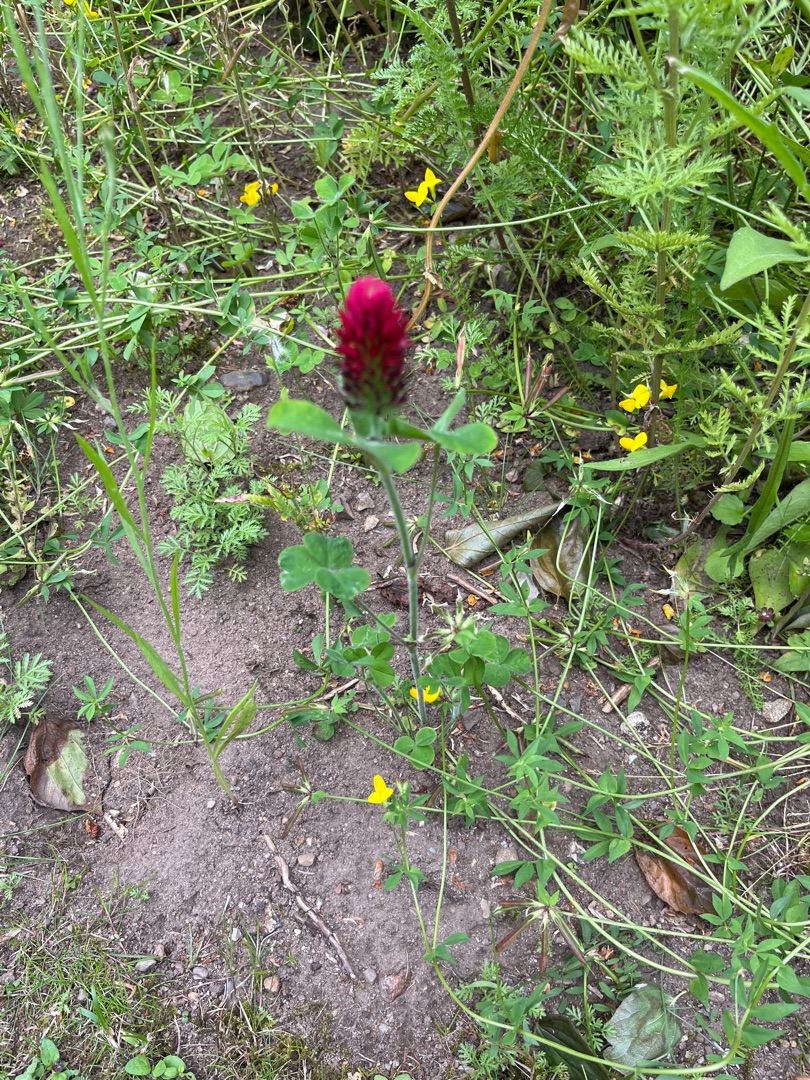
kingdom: Plantae
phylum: Tracheophyta
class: Magnoliopsida
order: Fabales
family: Fabaceae
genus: Trifolium
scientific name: Trifolium incarnatum
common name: Blod-kløver
